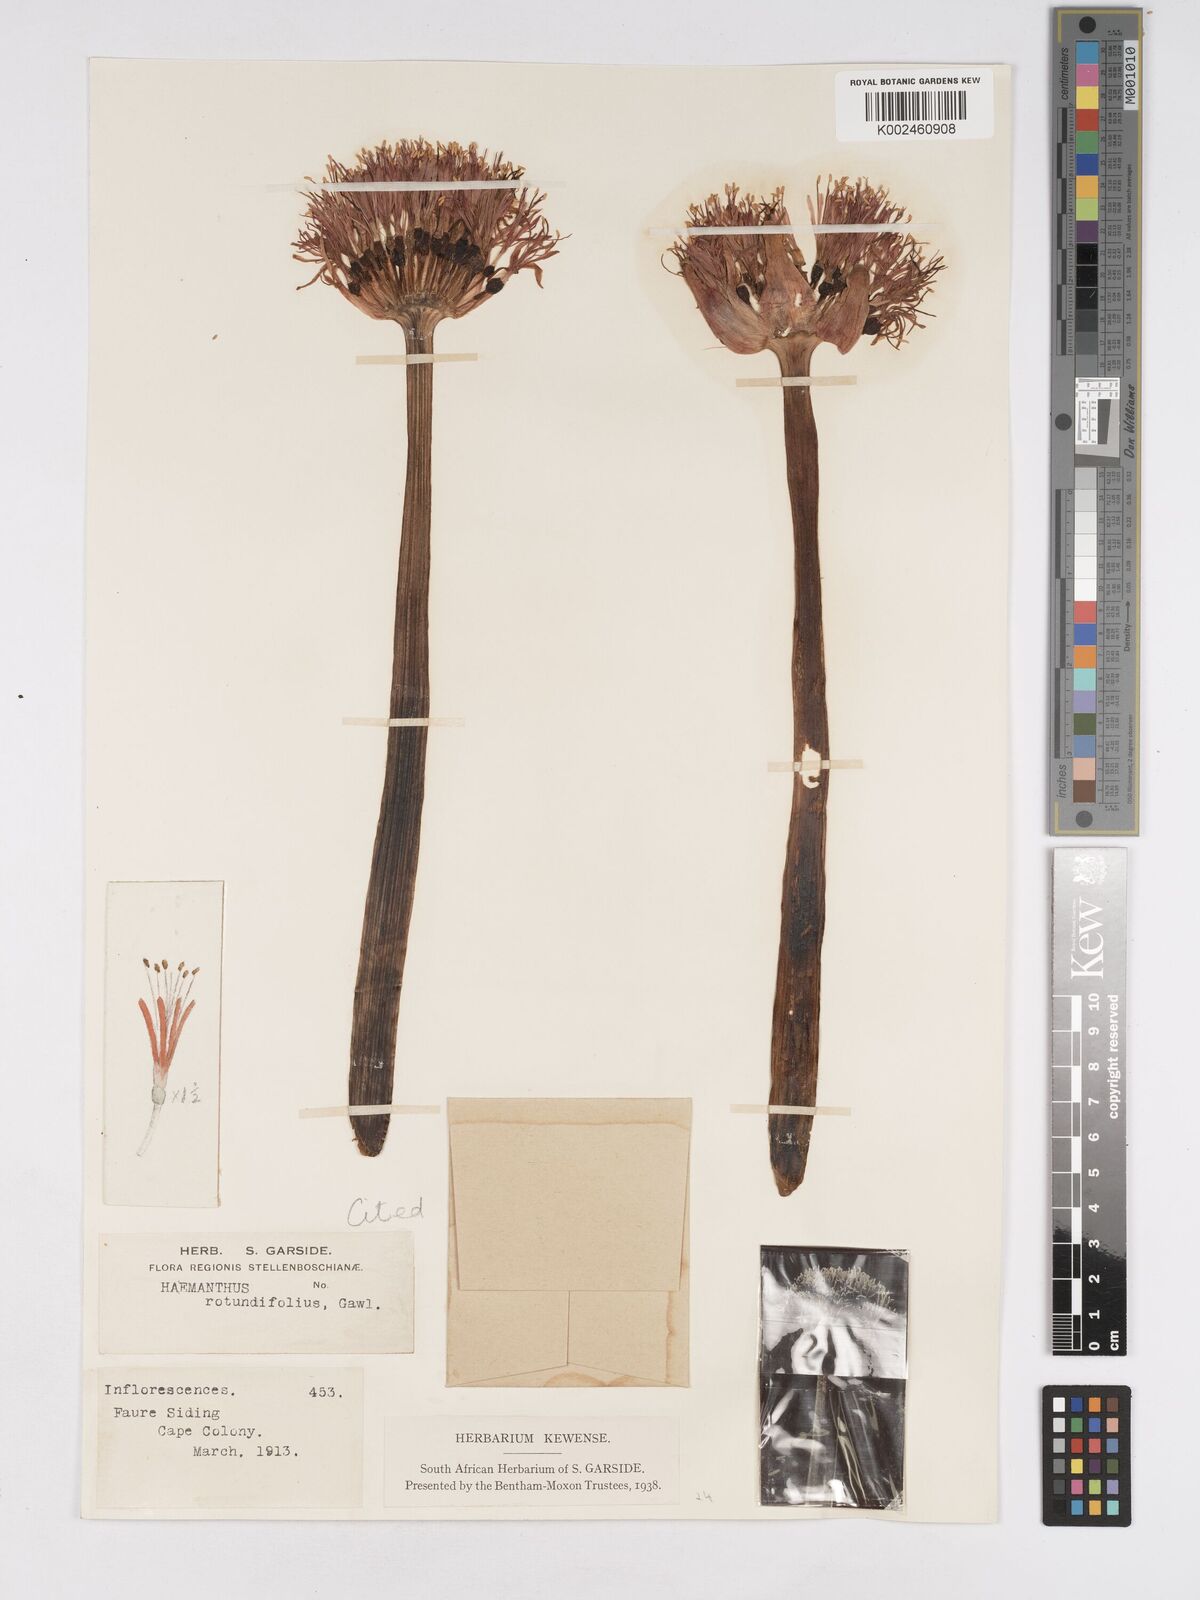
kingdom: Plantae
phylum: Tracheophyta
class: Liliopsida
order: Asparagales
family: Amaryllidaceae
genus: Haemanthus
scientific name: Haemanthus sanguineus
